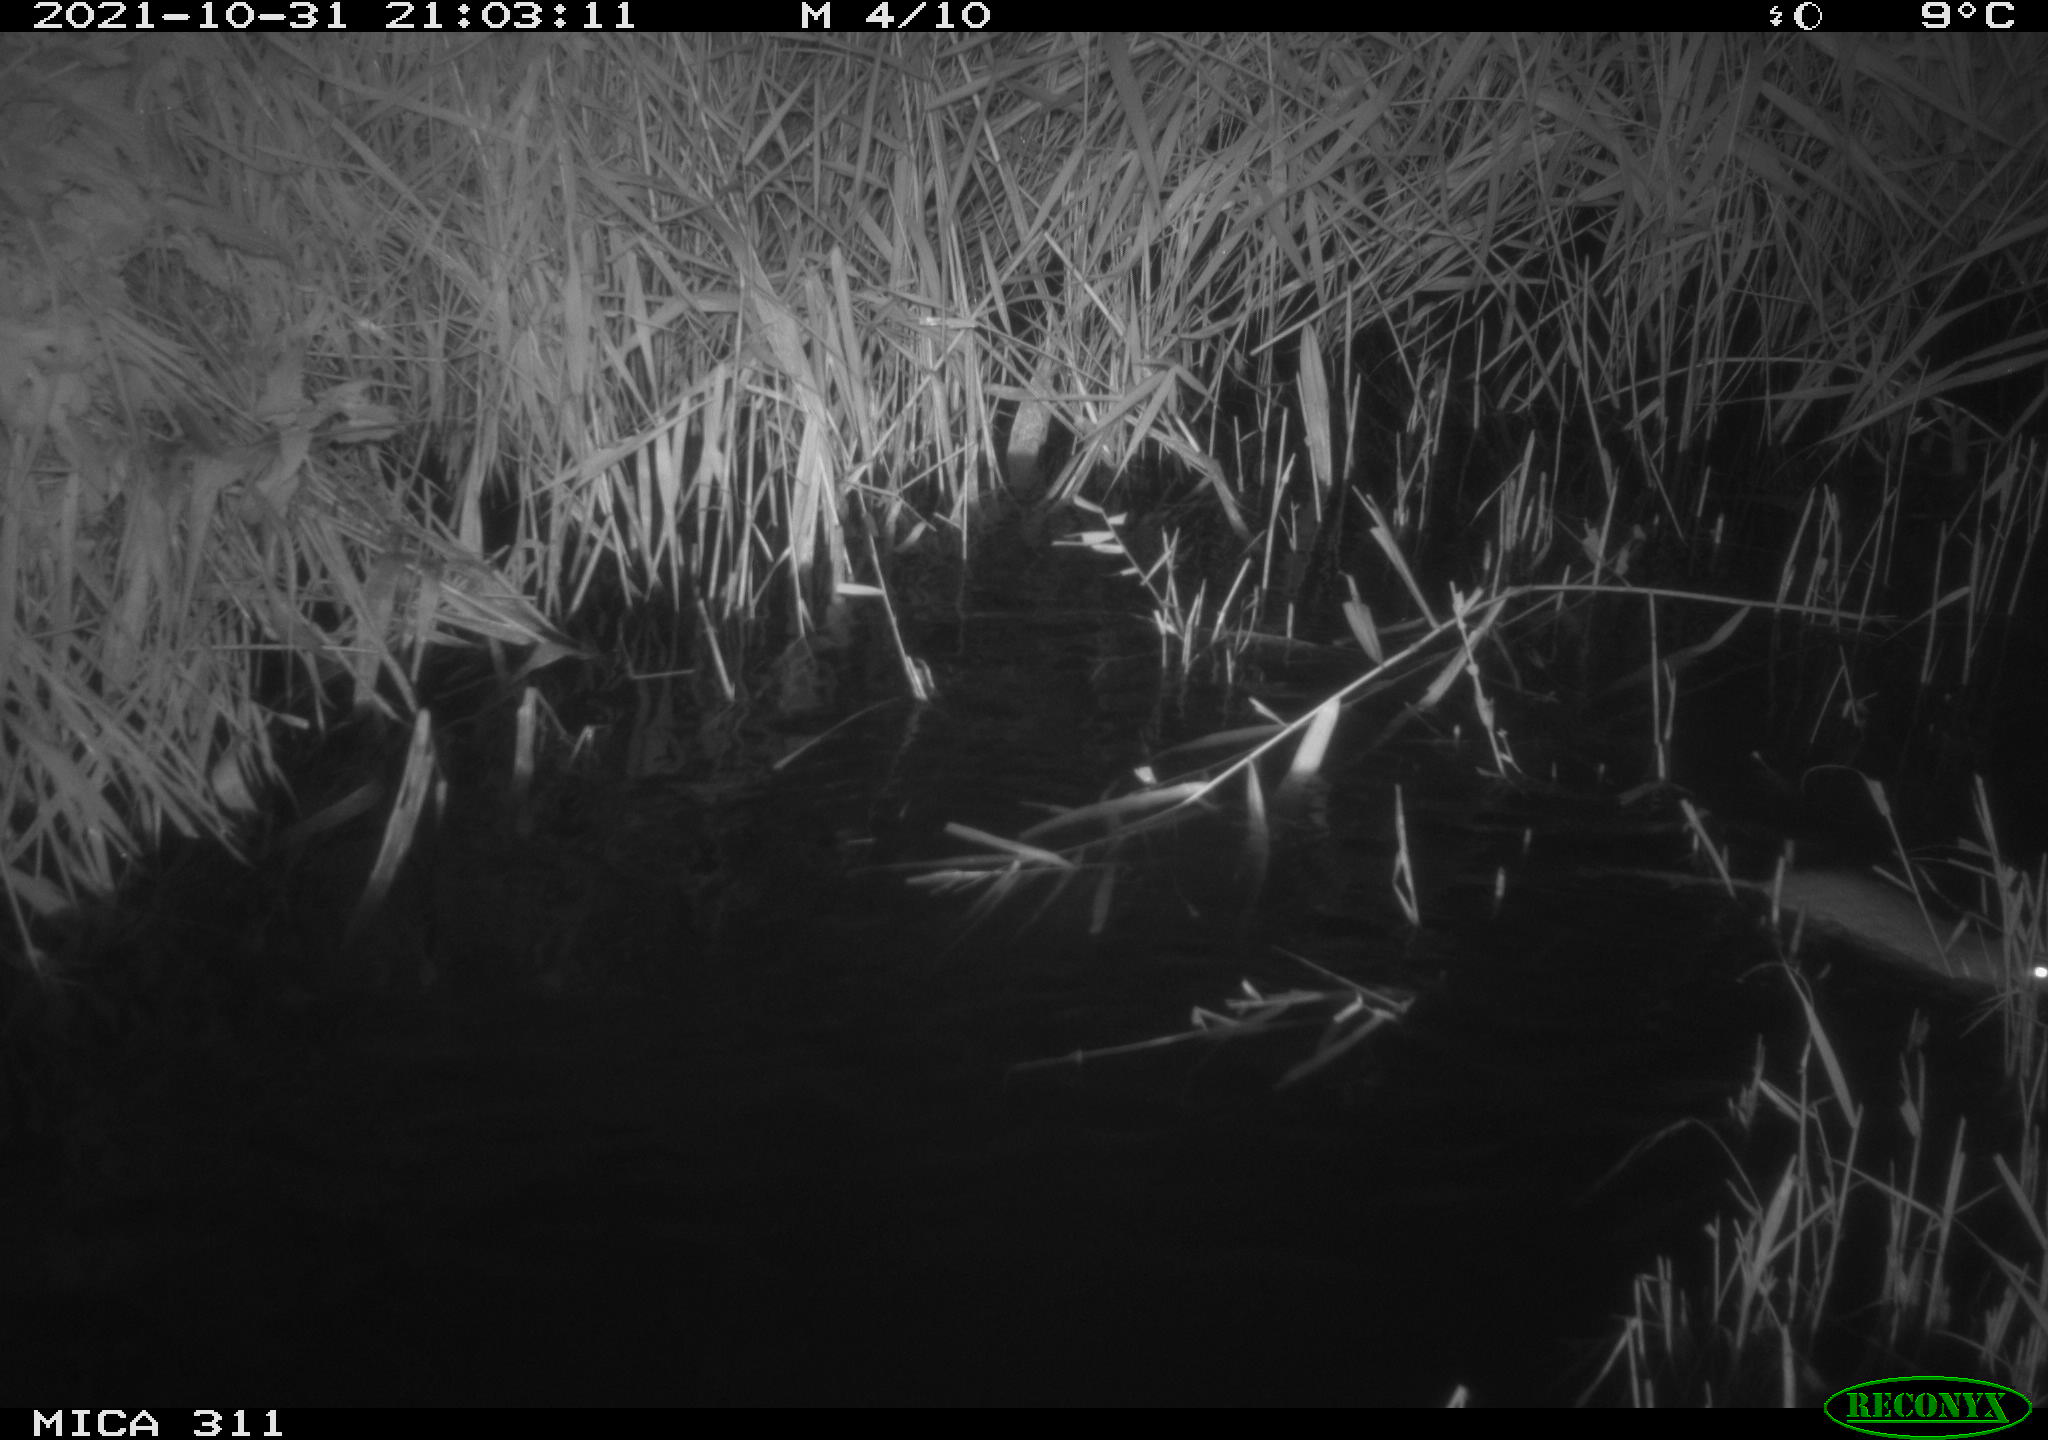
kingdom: Animalia
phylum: Chordata
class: Mammalia
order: Rodentia
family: Muridae
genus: Rattus
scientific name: Rattus norvegicus
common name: Brown rat
